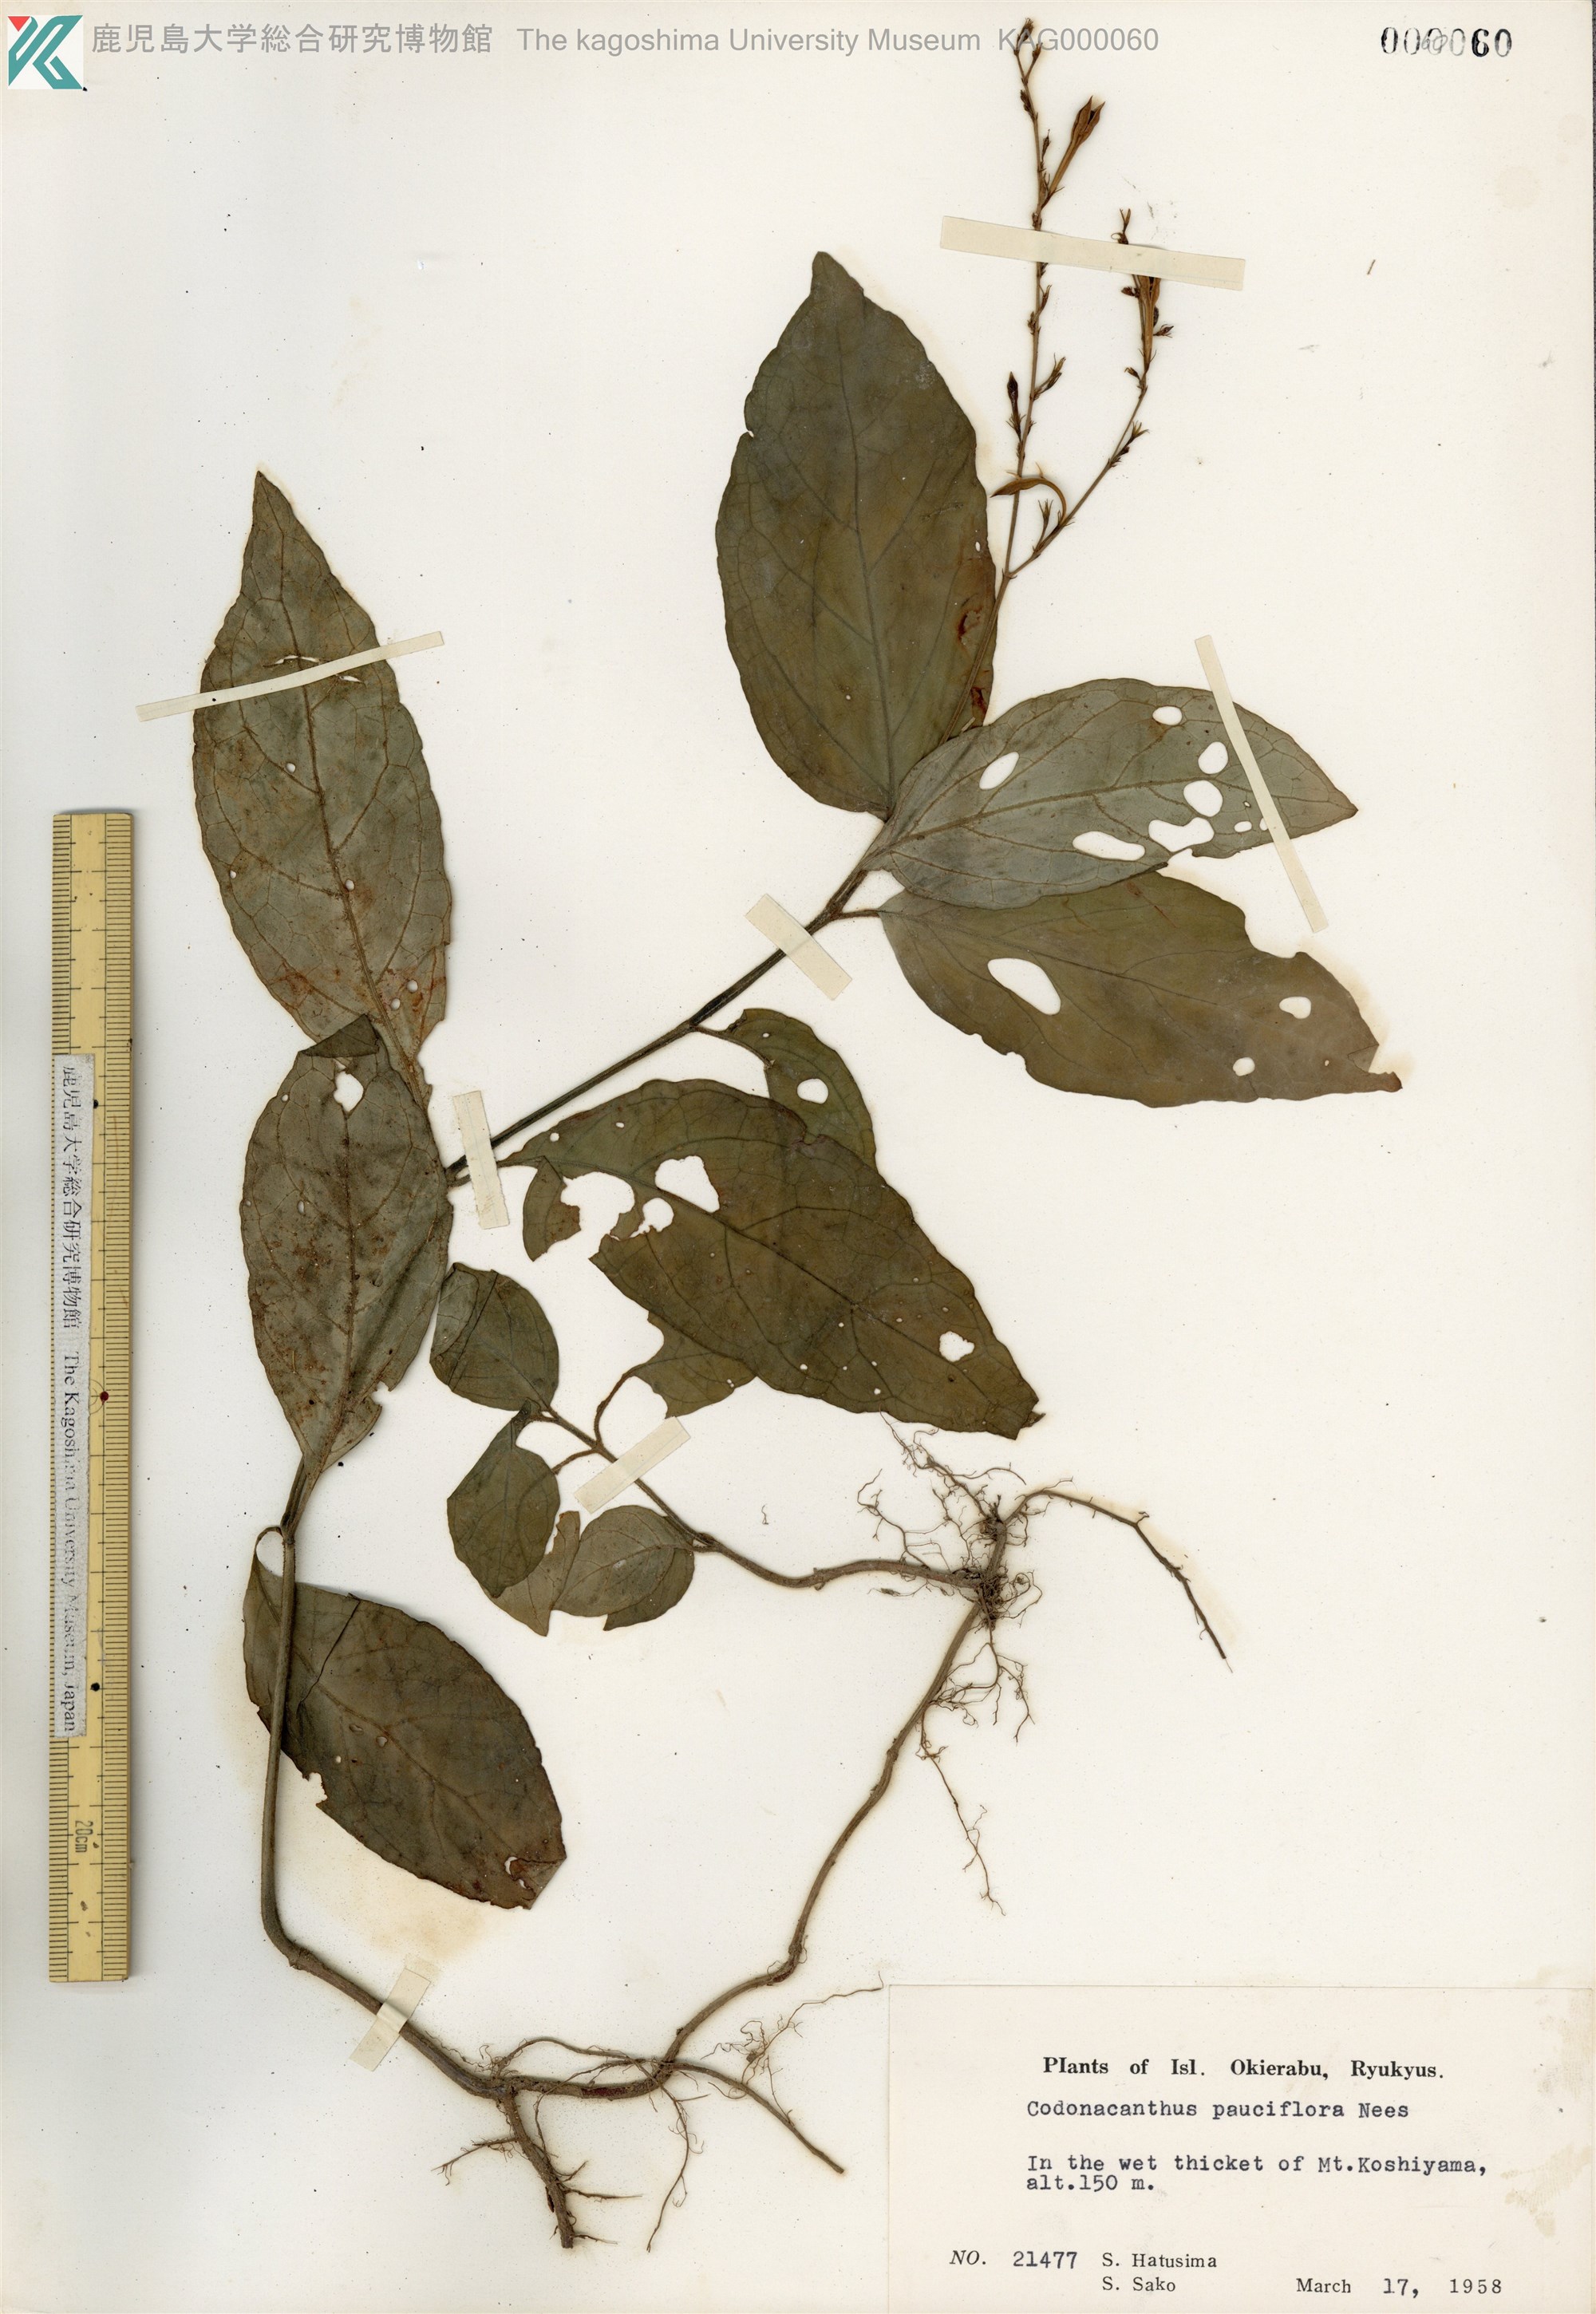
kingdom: Plantae
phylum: Tracheophyta
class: Magnoliopsida
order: Lamiales
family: Acanthaceae
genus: Codonacanthus
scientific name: Codonacanthus pauciflorus
